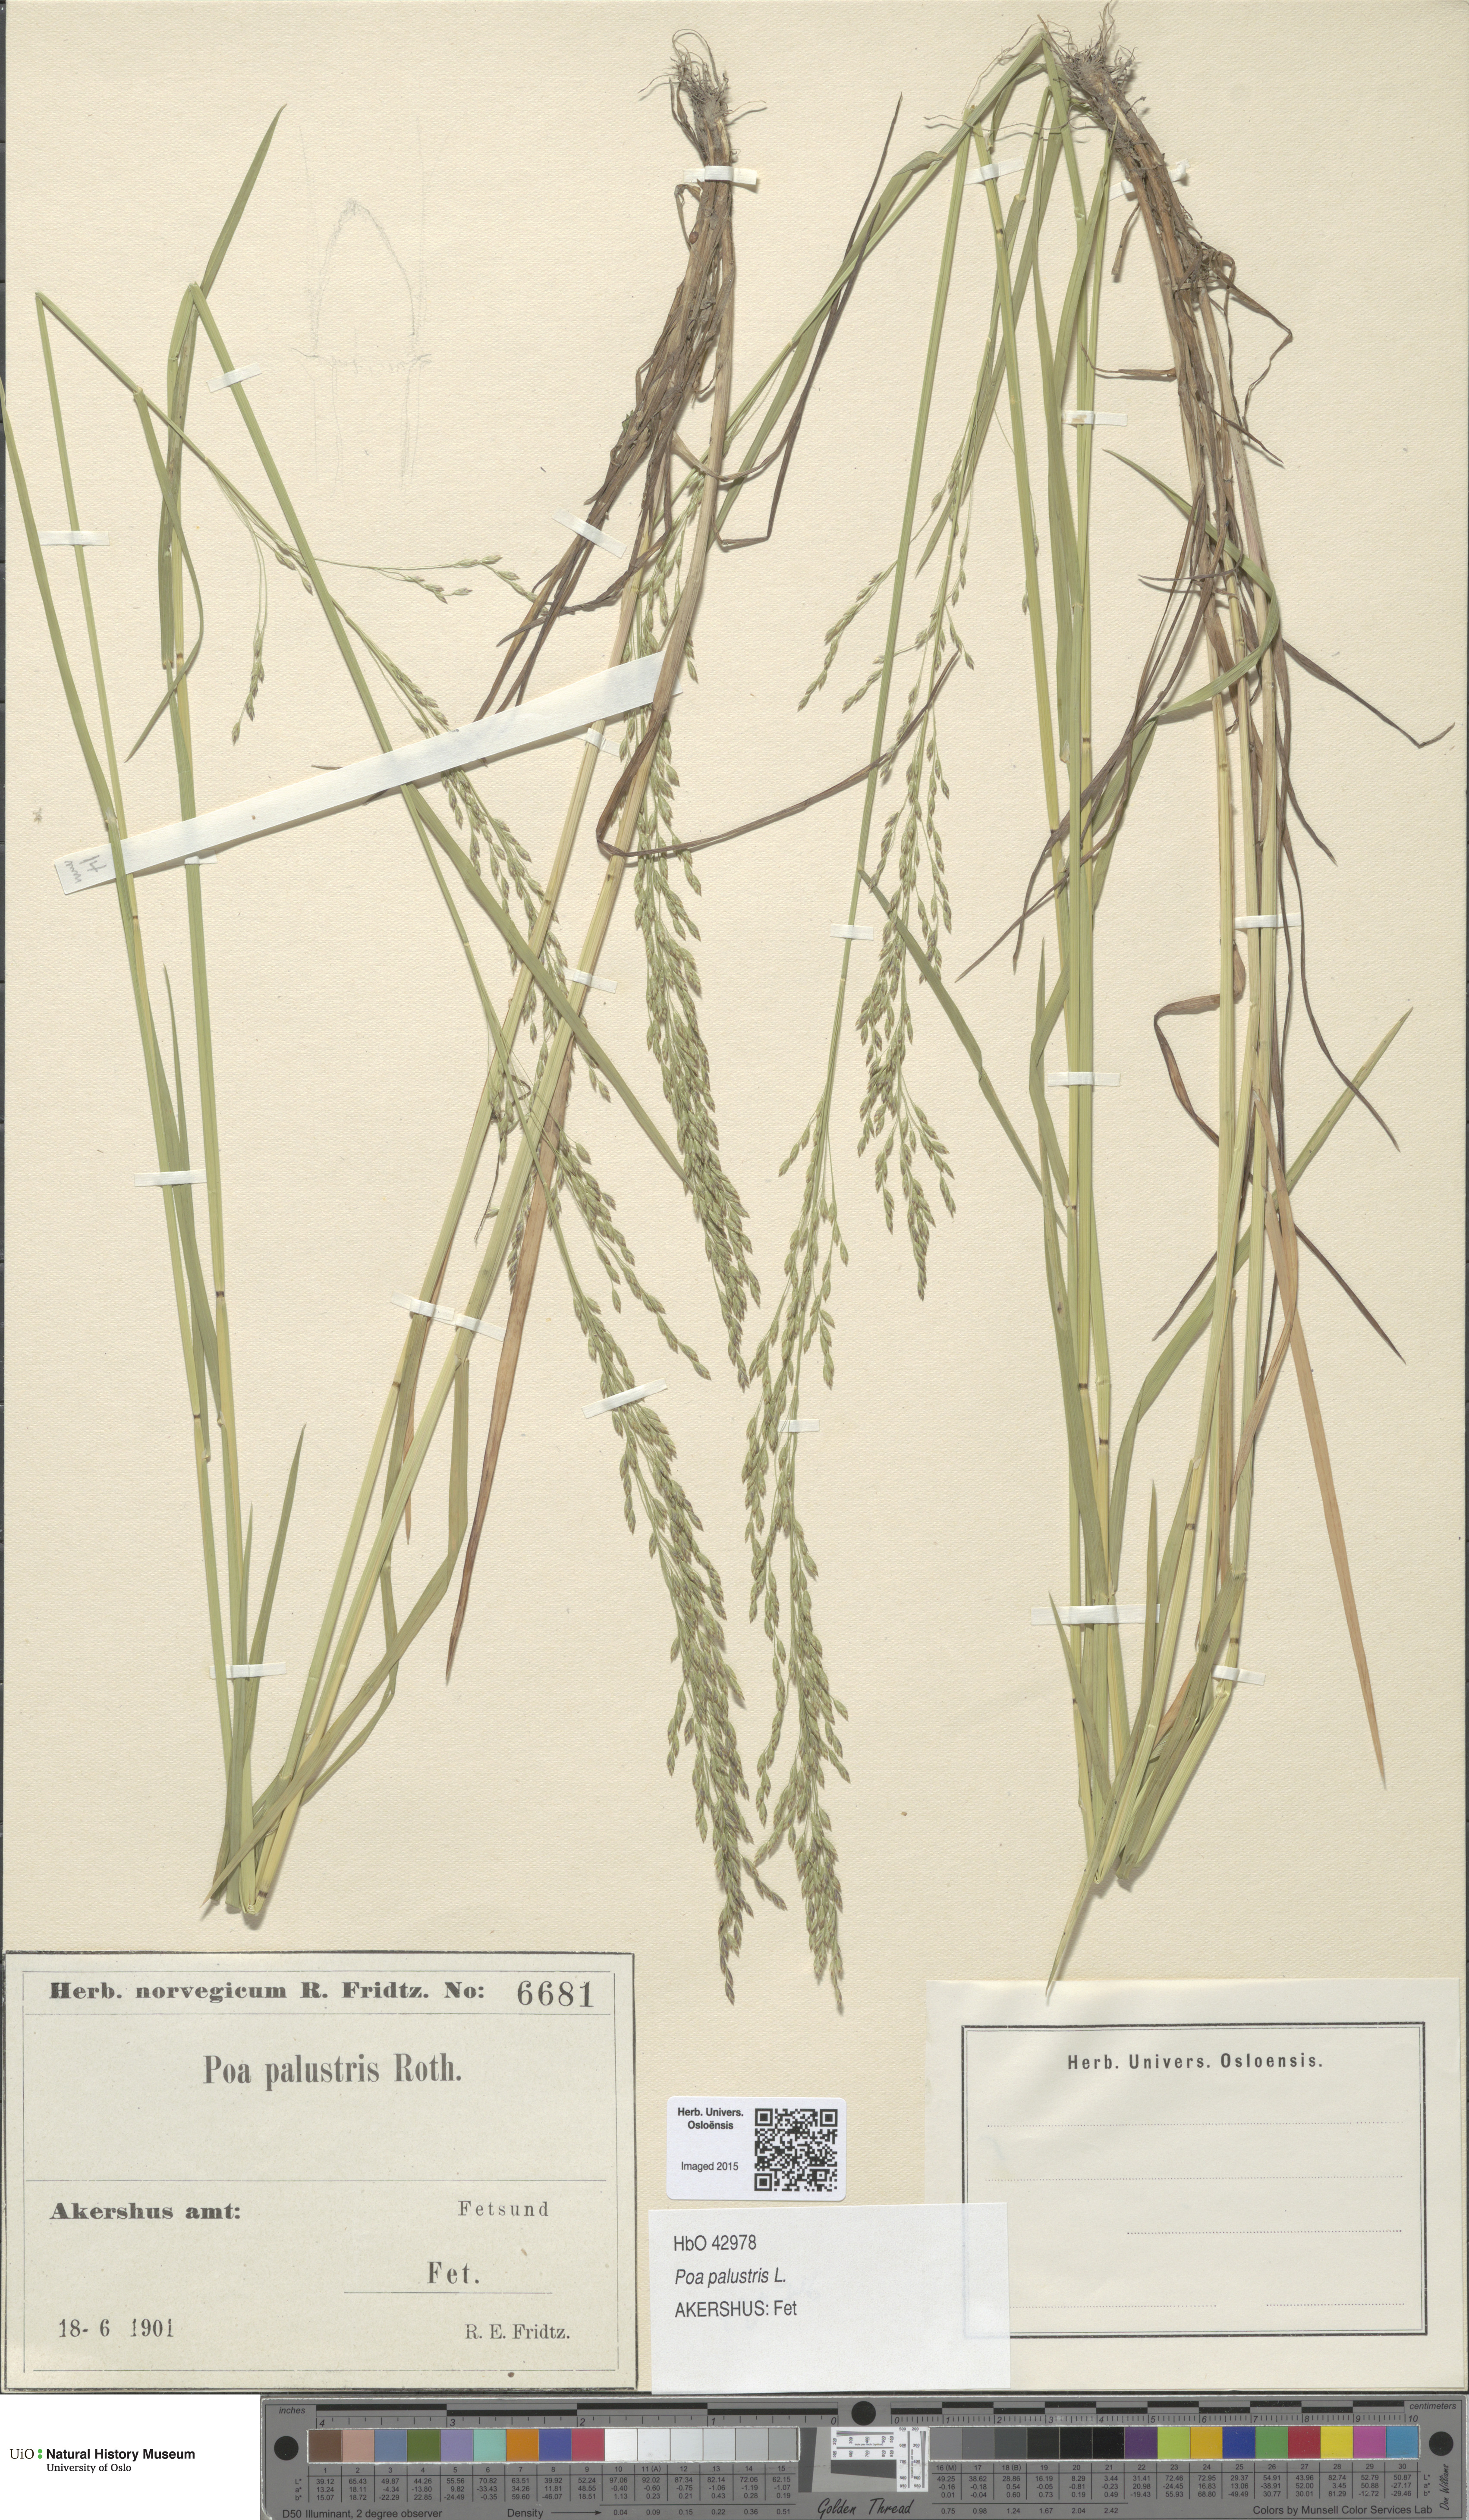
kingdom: Plantae
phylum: Tracheophyta
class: Liliopsida
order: Poales
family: Poaceae
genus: Poa
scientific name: Poa palustris
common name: Swamp meadow-grass
